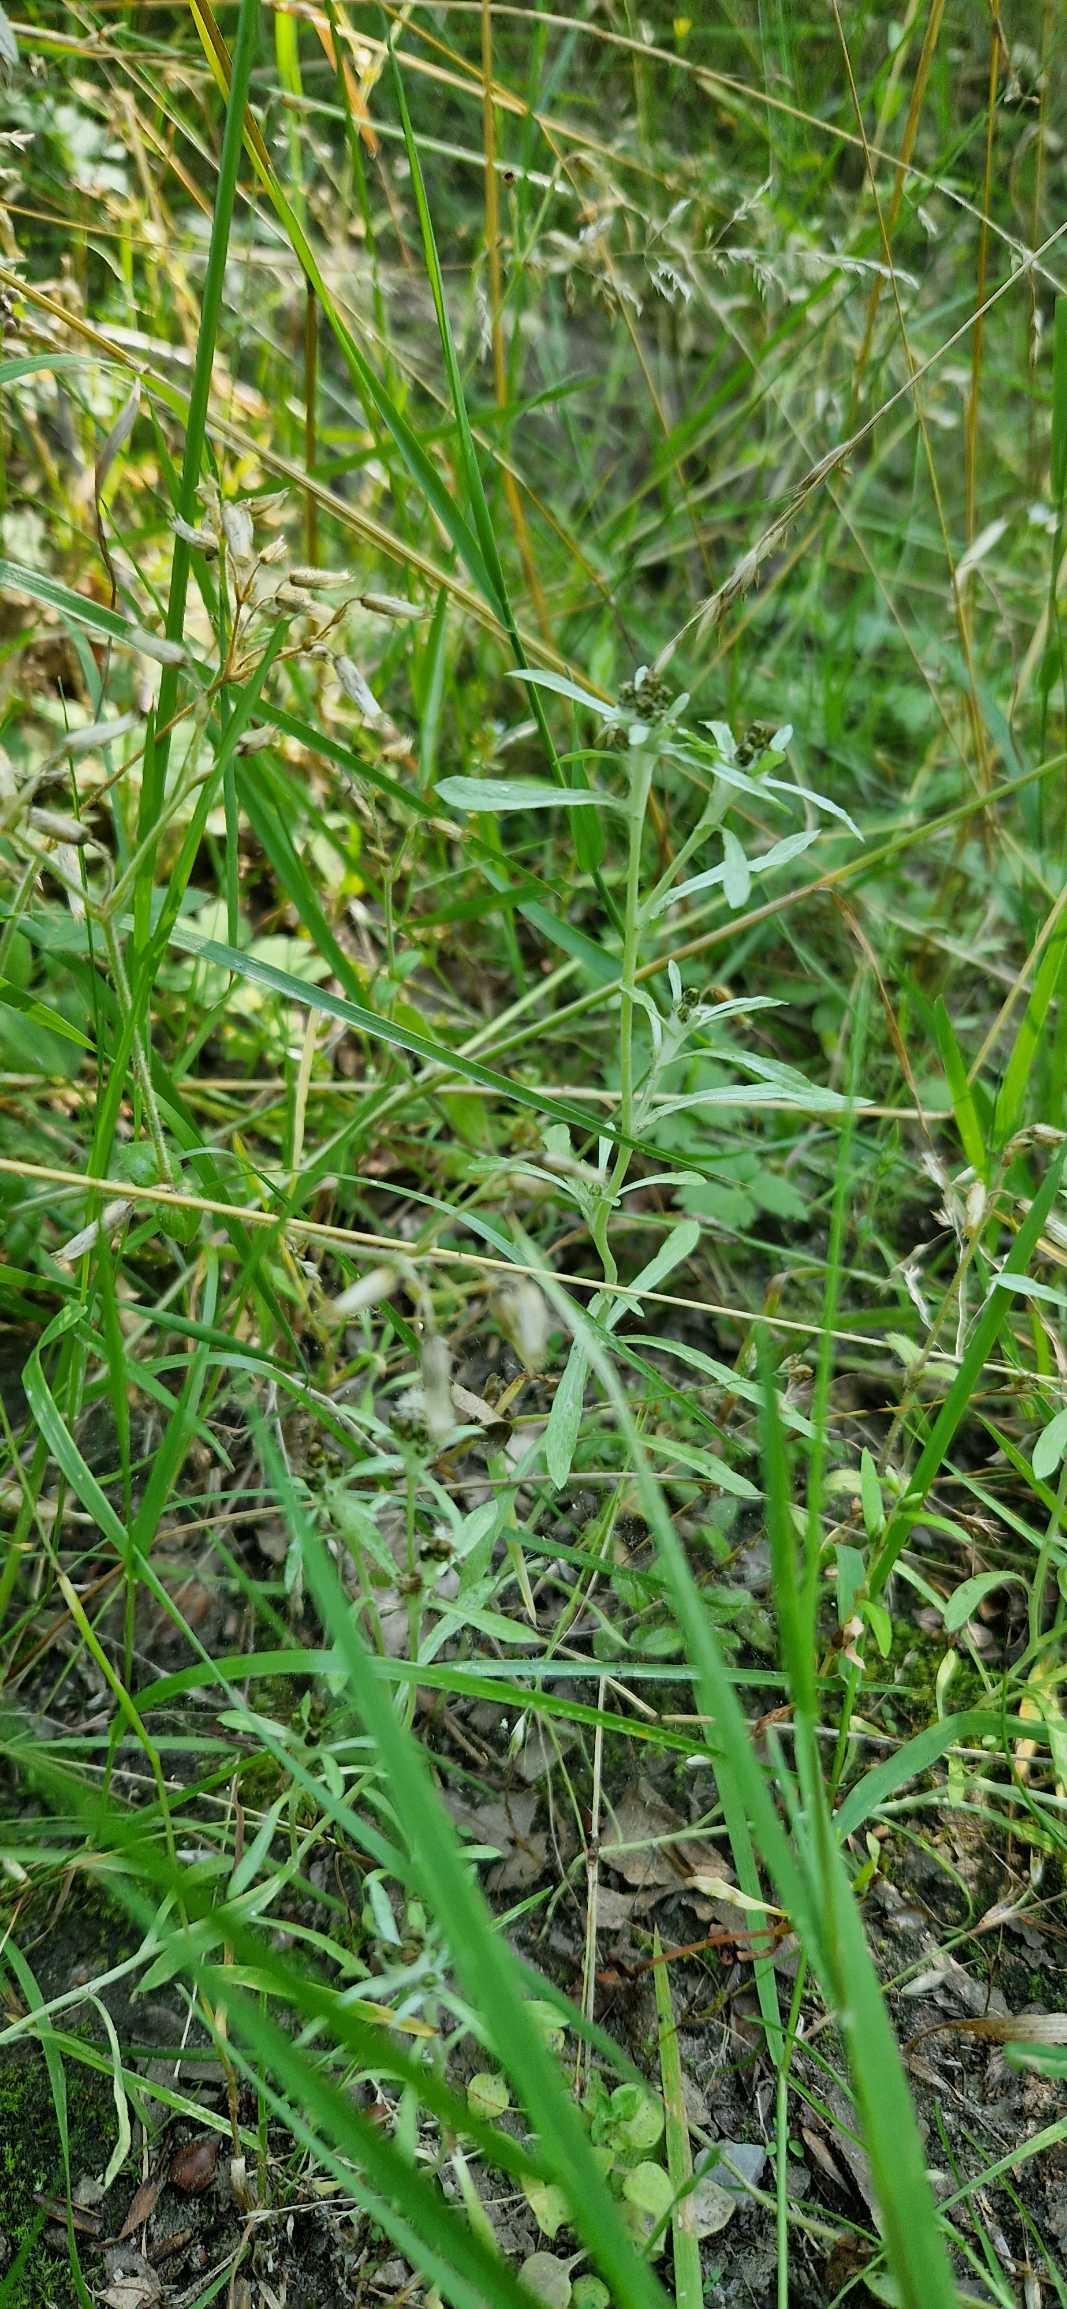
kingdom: Plantae
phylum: Tracheophyta
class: Magnoliopsida
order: Asterales
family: Asteraceae
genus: Gnaphalium
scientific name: Gnaphalium uliginosum
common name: Sump-evighedsblomst
